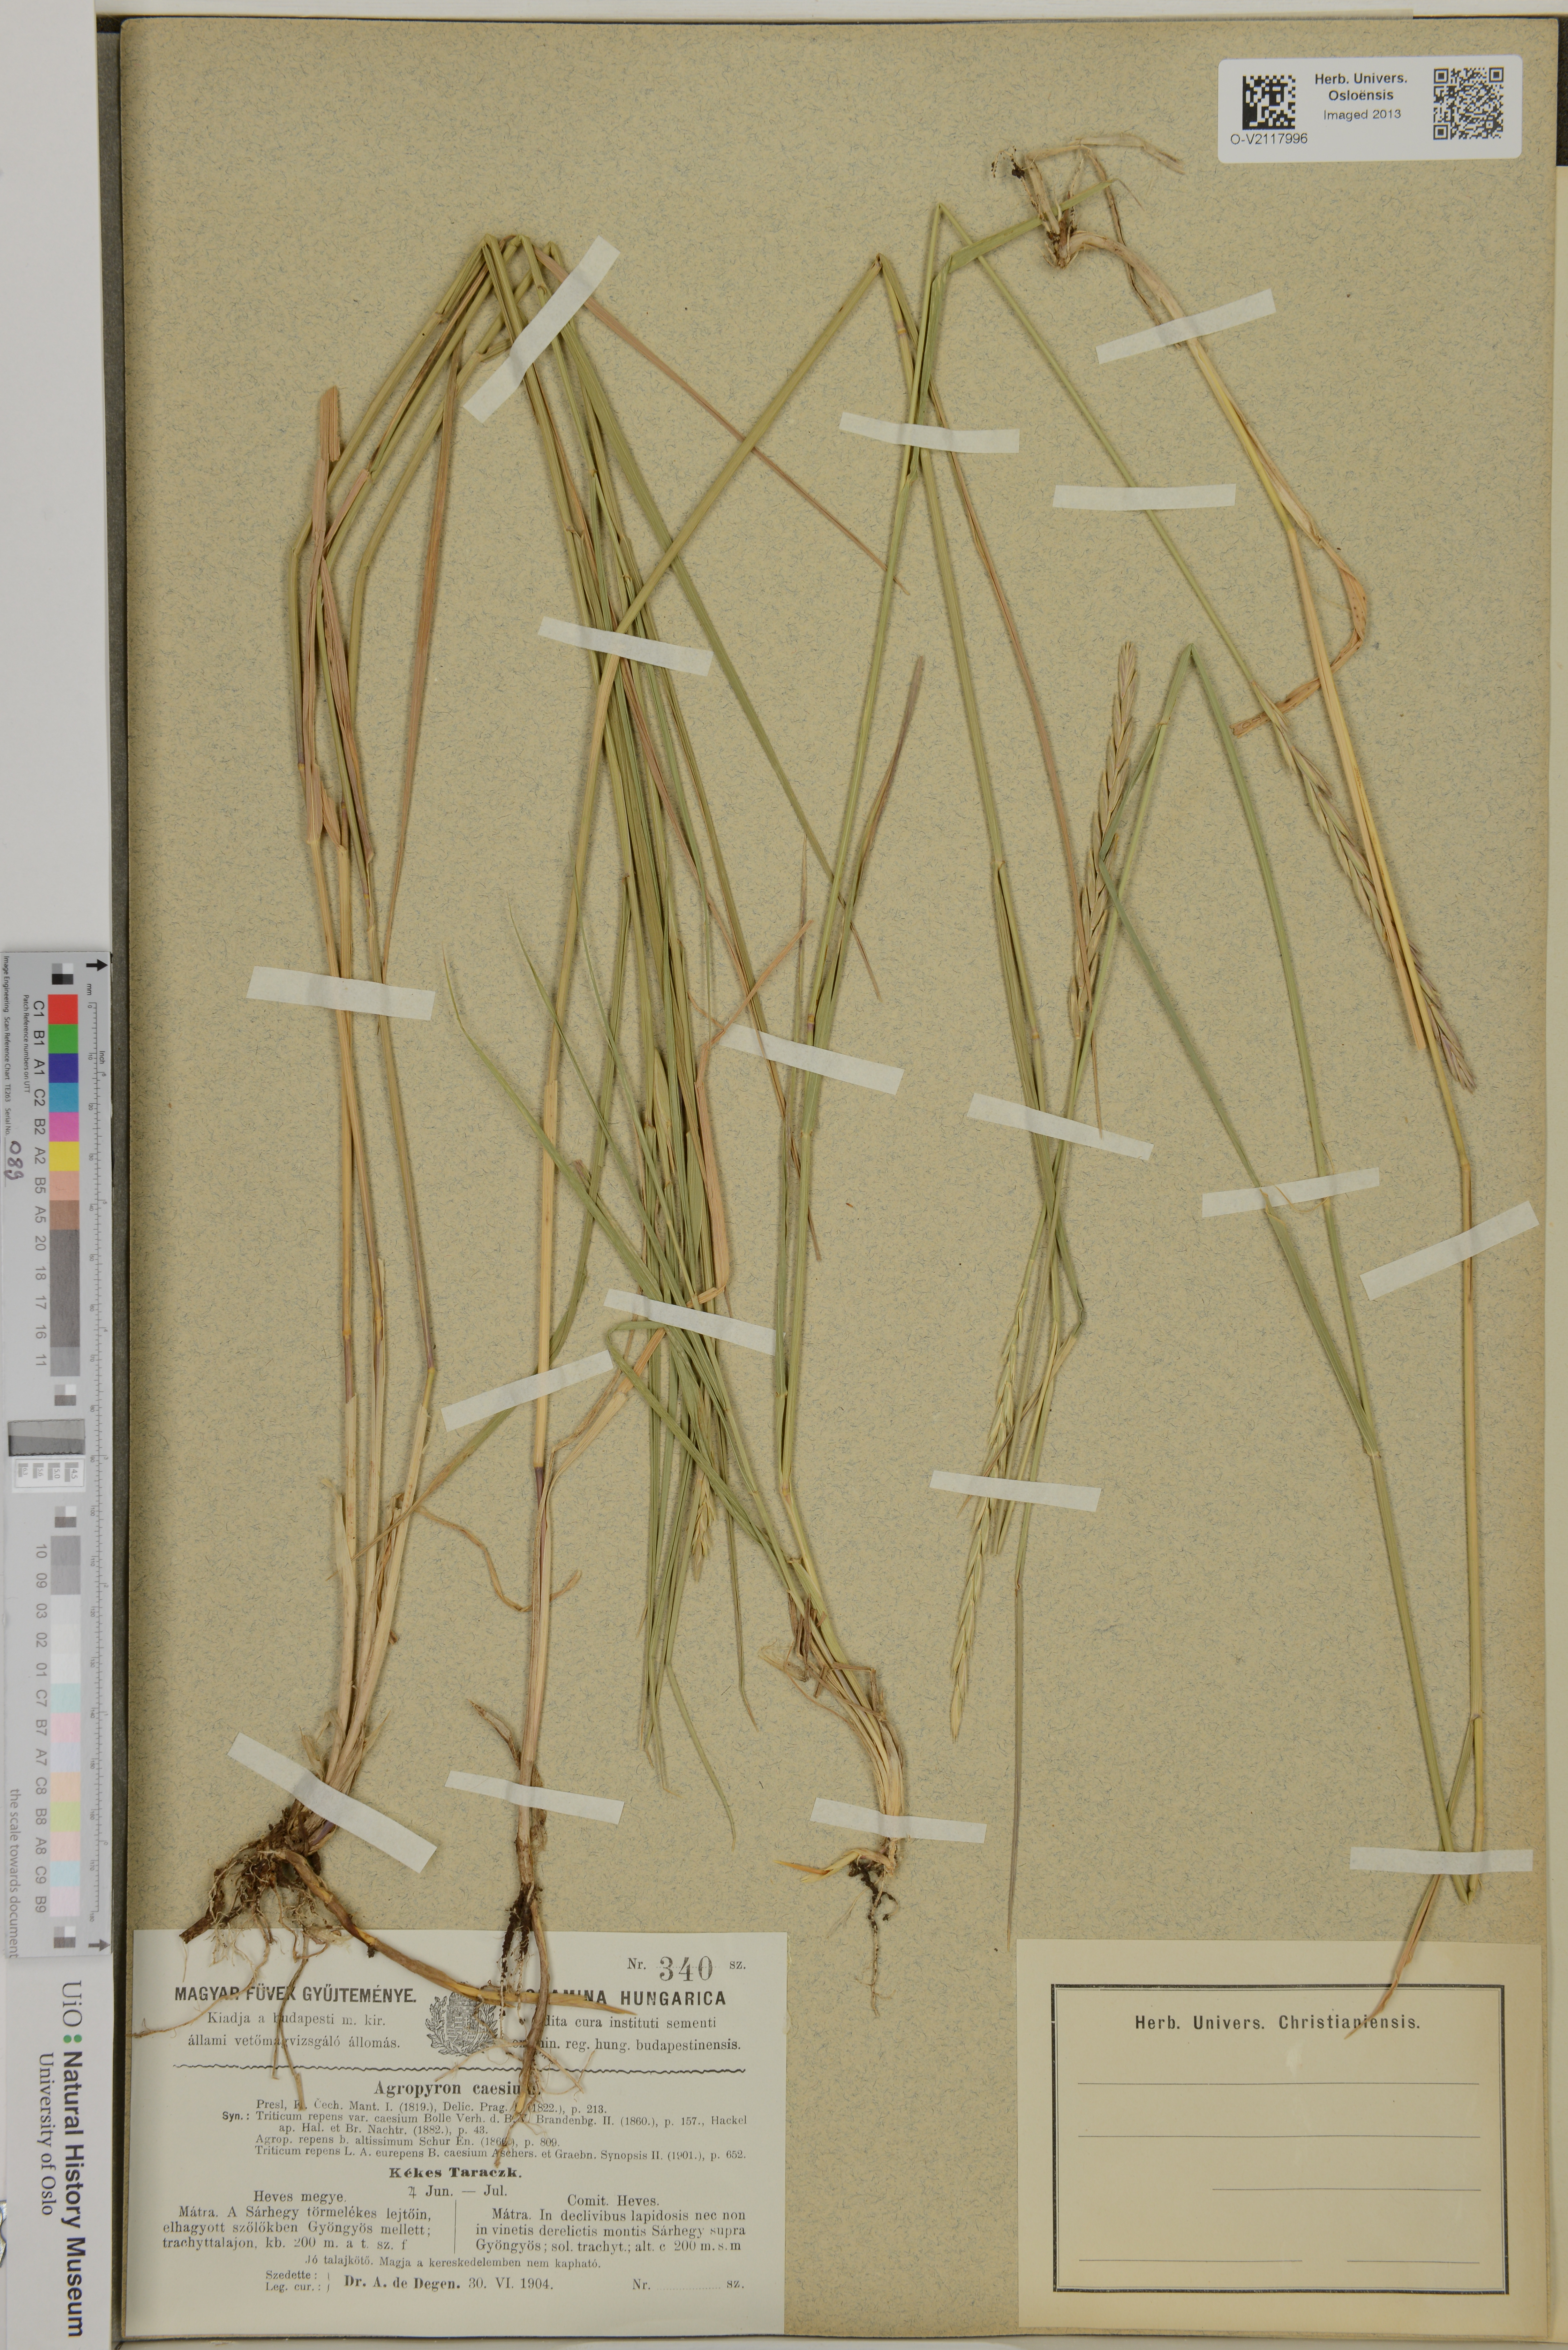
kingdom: Plantae
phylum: Tracheophyta
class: Liliopsida
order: Poales
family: Poaceae
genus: Elymus
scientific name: Elymus repens
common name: Quackgrass
